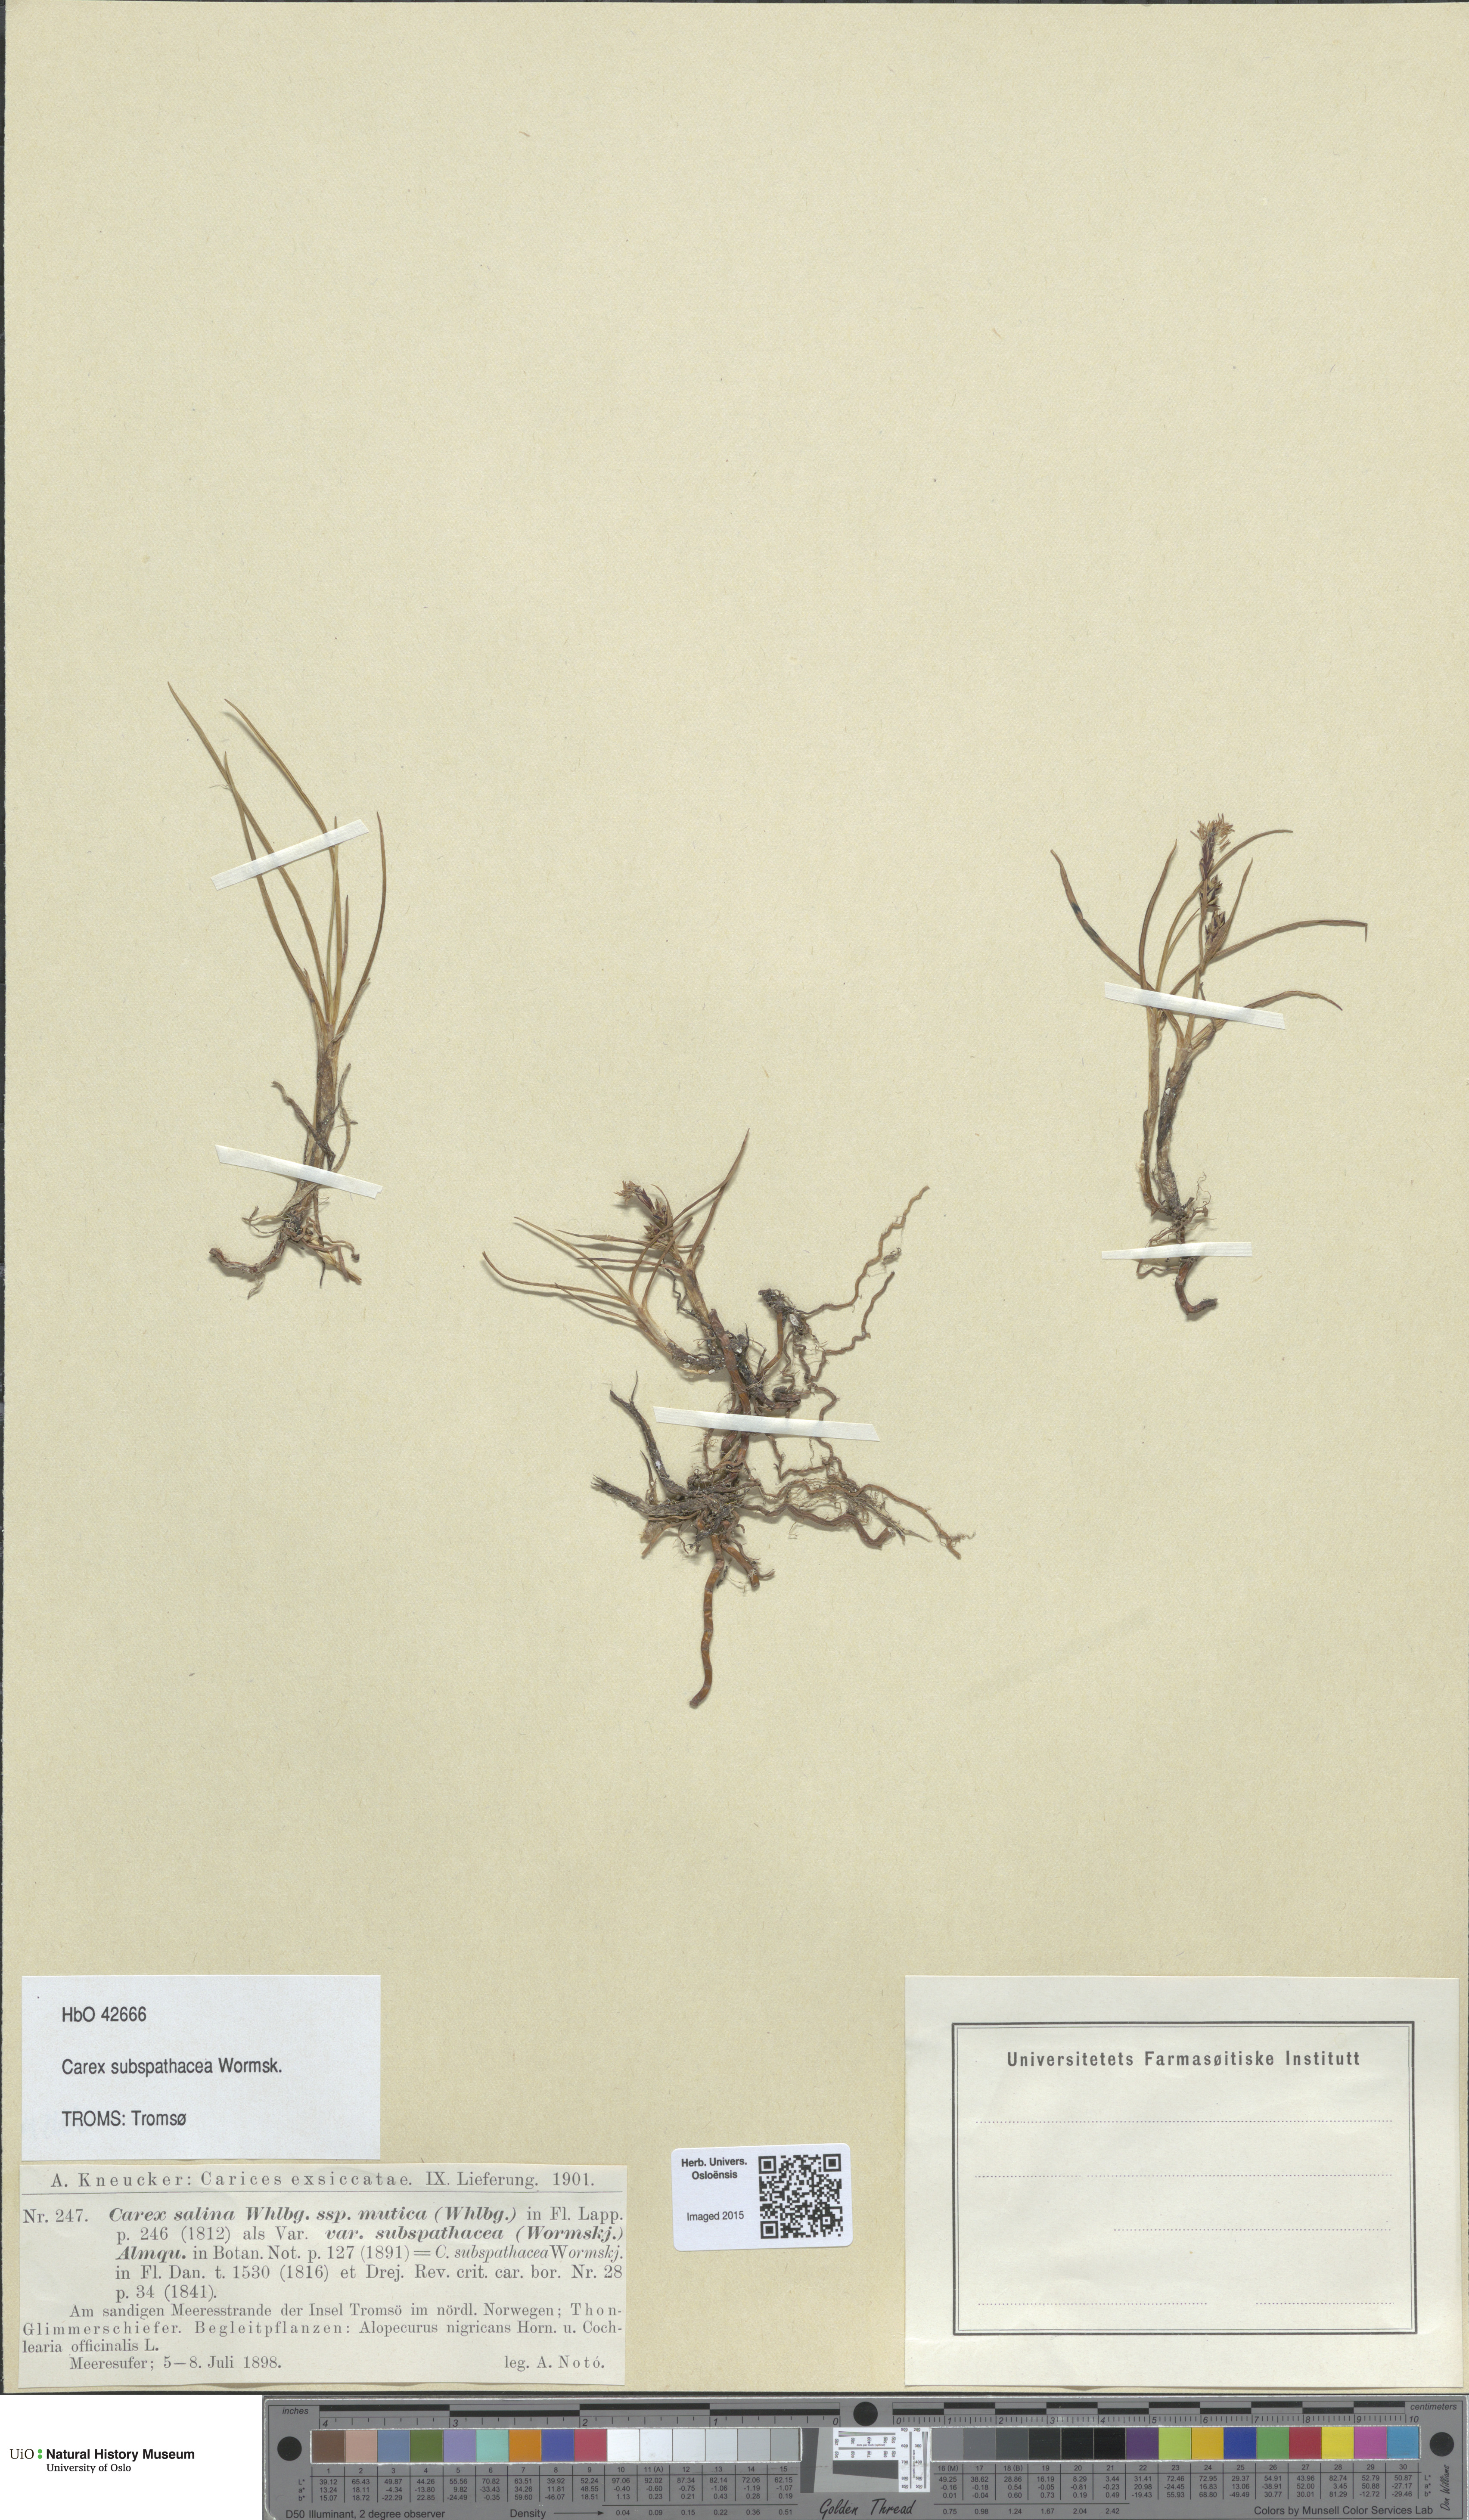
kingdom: Plantae
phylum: Tracheophyta
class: Liliopsida
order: Poales
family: Cyperaceae
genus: Carex
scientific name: Carex subspathacea
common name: Hoppner's sedge
